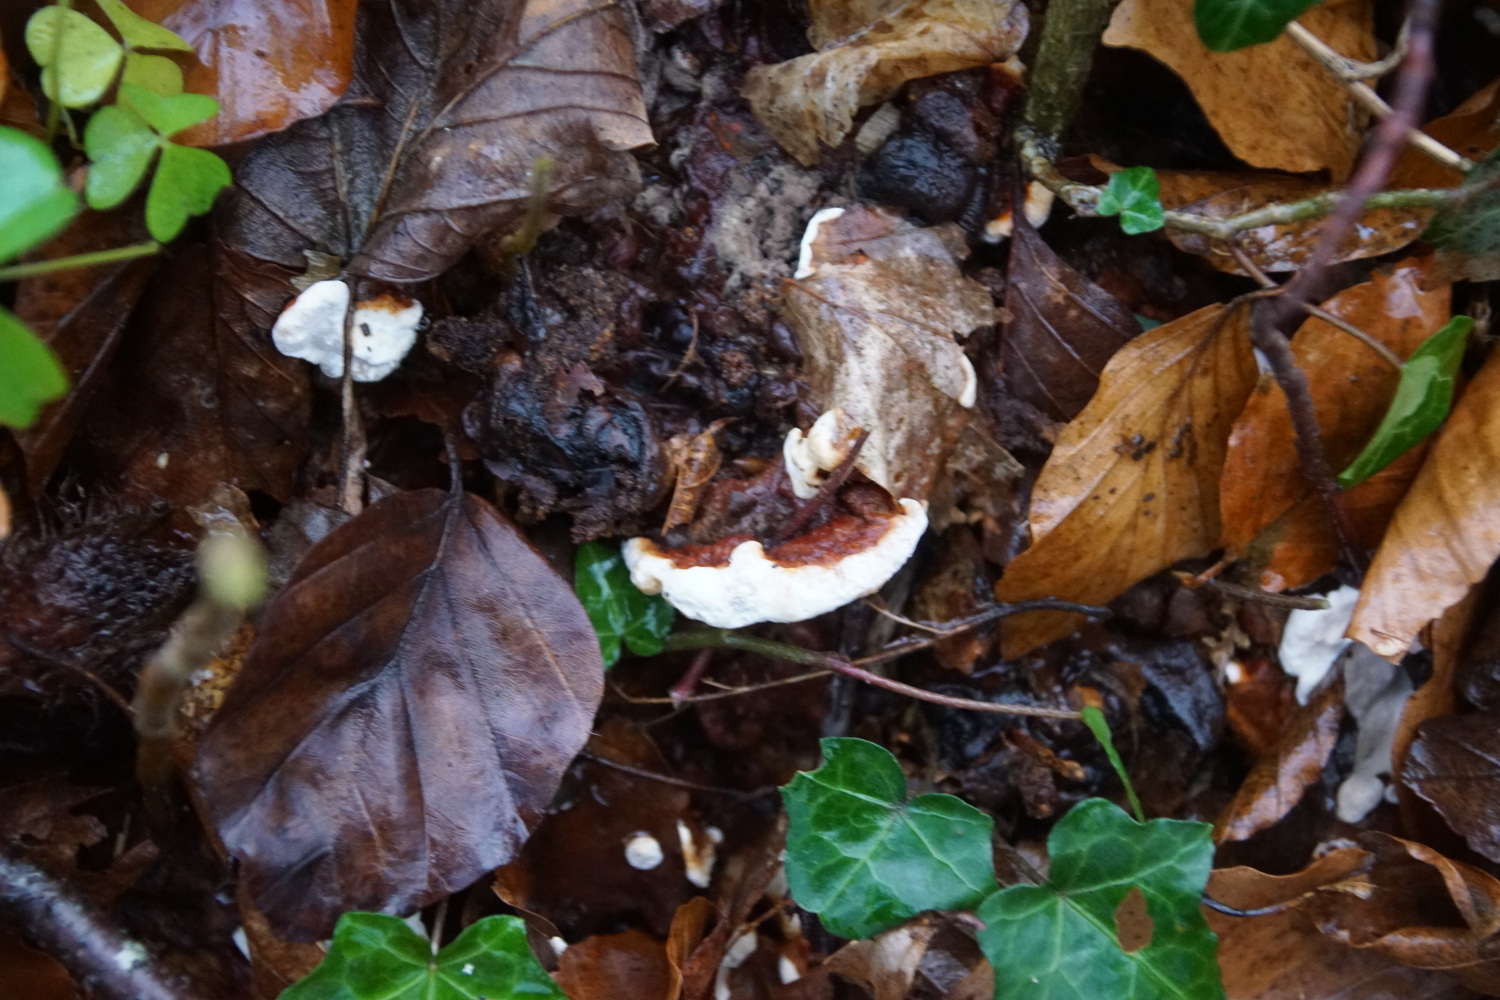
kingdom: Fungi
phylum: Basidiomycota
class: Agaricomycetes
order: Russulales
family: Bondarzewiaceae
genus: Heterobasidion
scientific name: Heterobasidion annosum
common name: almindelig rodfordærver
